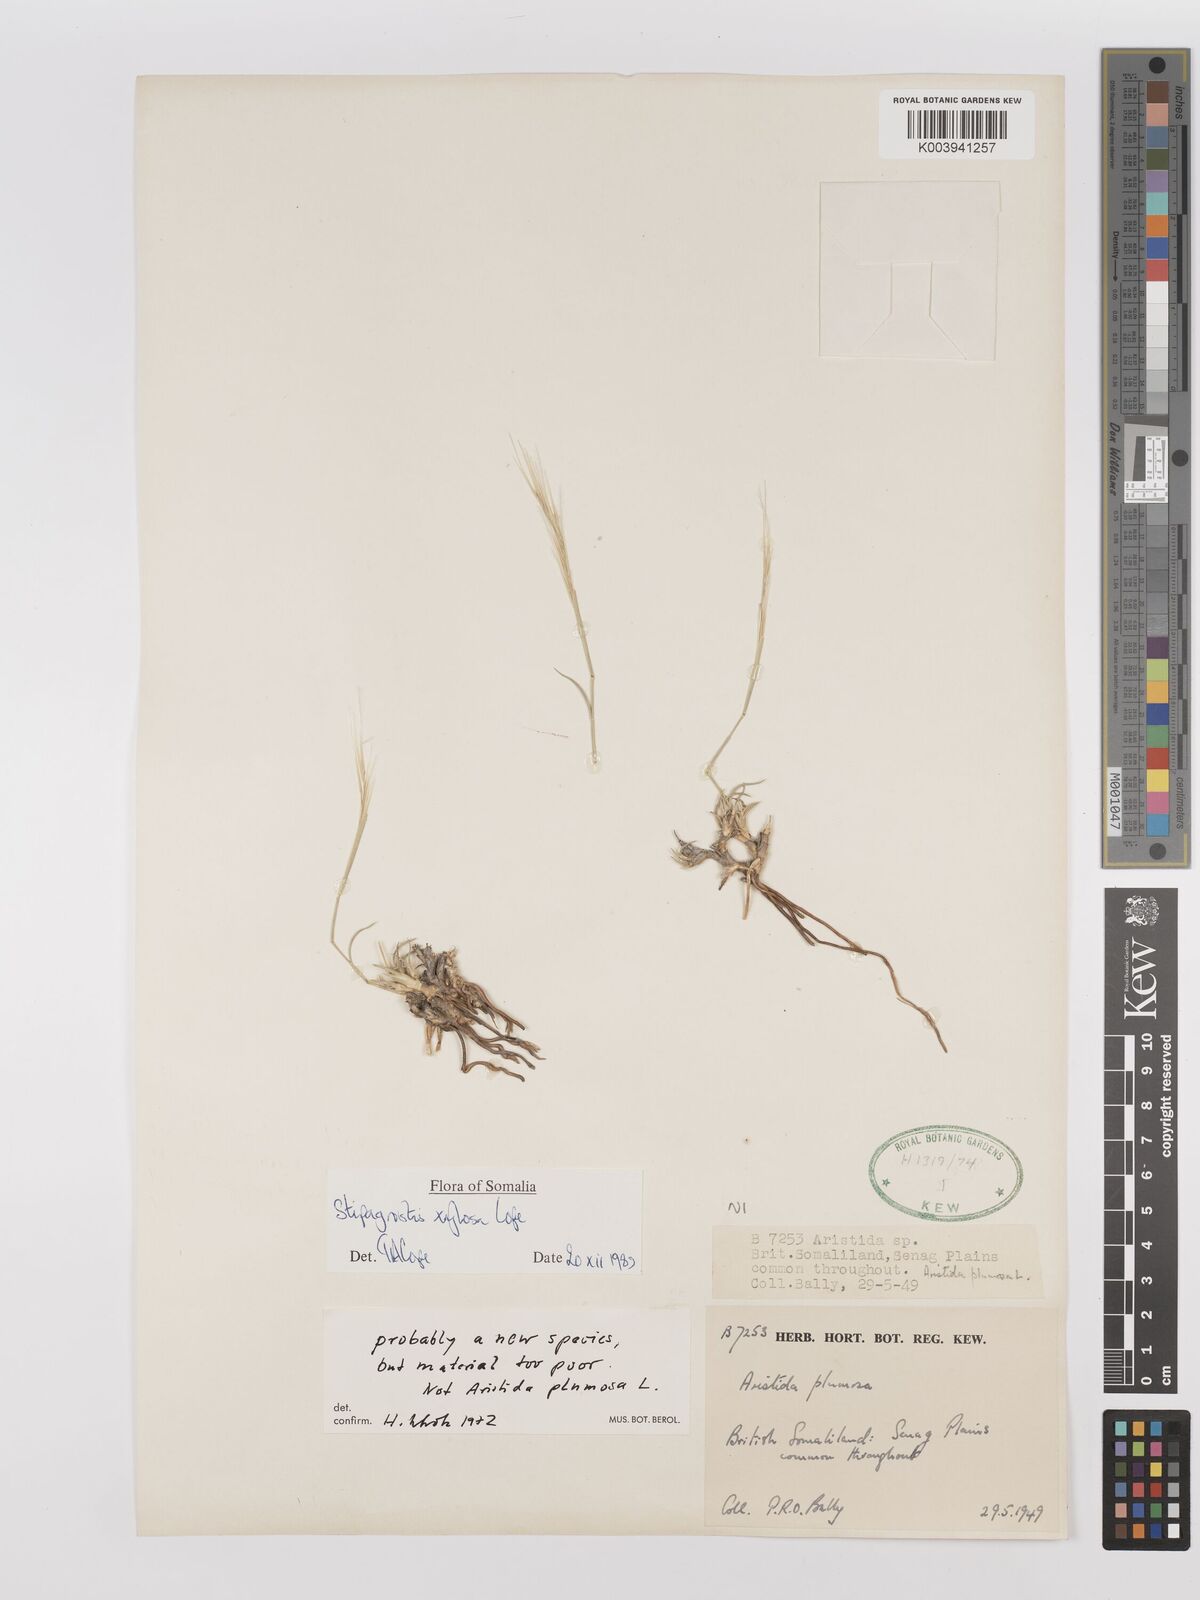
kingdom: Plantae
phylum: Tracheophyta
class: Liliopsida
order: Poales
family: Poaceae
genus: Stipagrostis
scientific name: Stipagrostis xylosa
